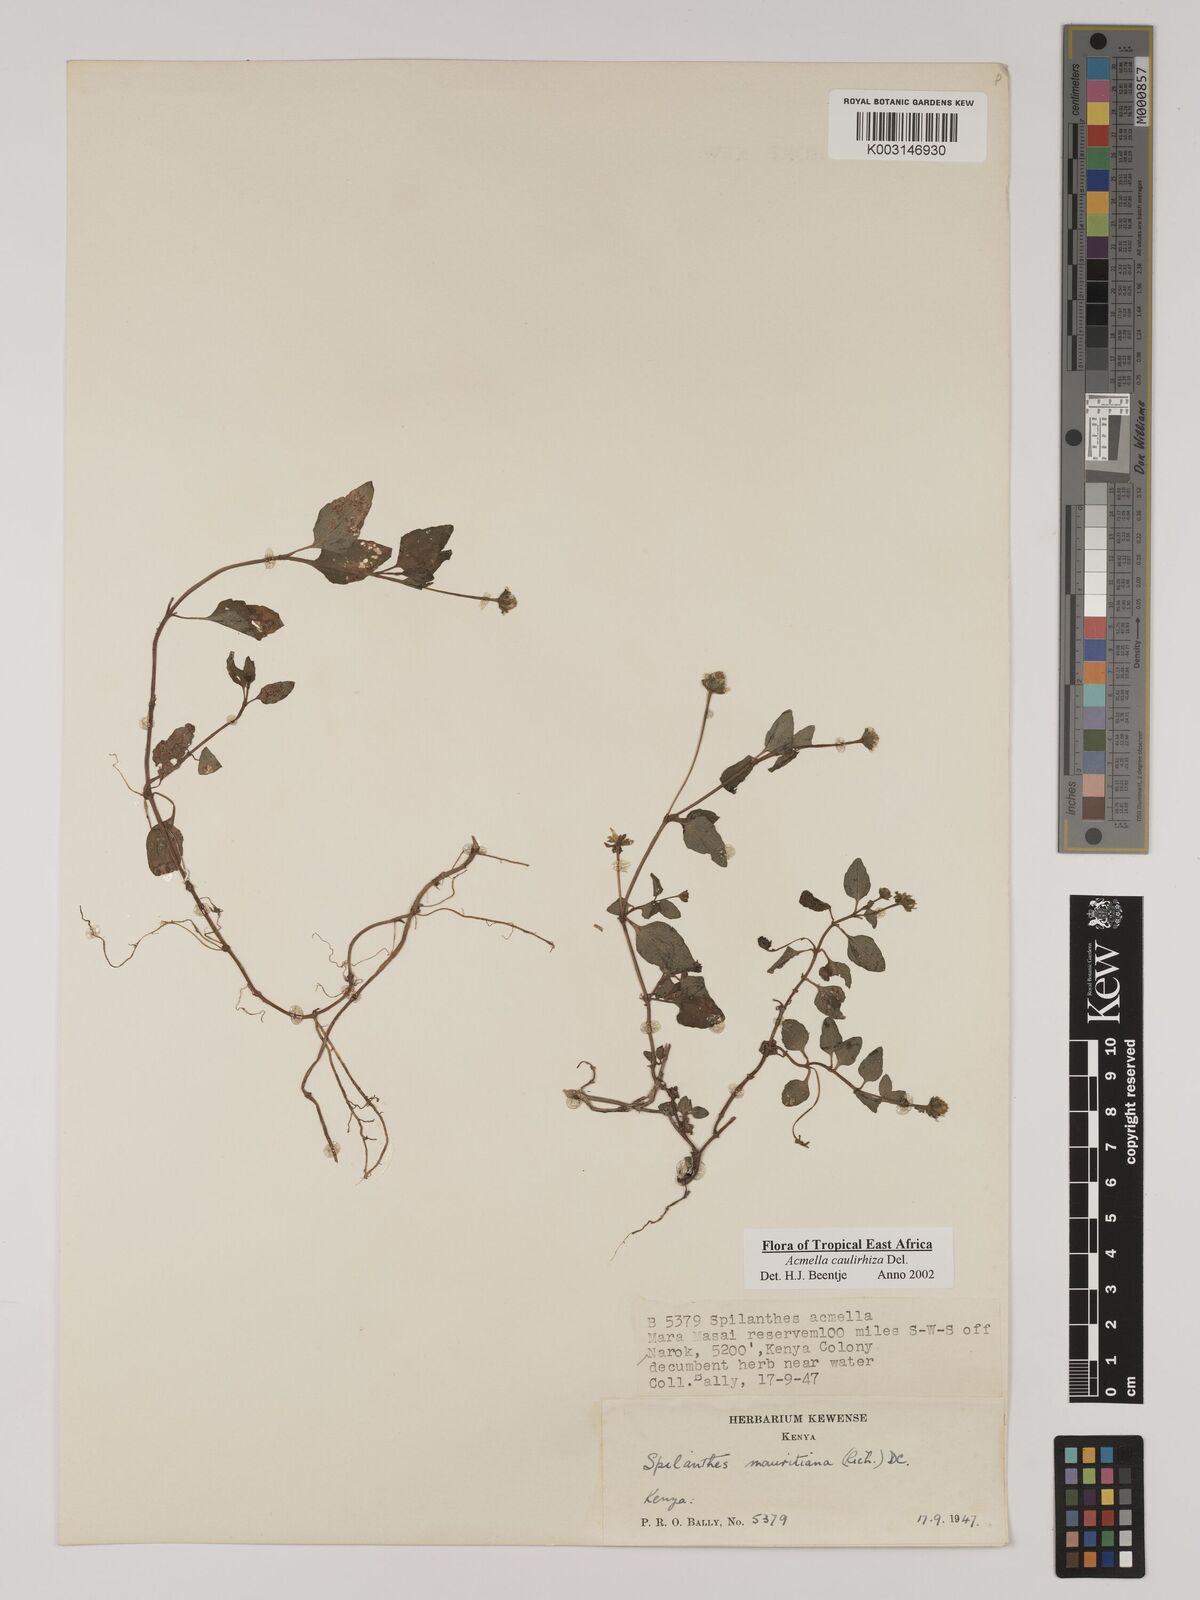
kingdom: Plantae
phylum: Tracheophyta
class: Magnoliopsida
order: Asterales
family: Asteraceae
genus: Acmella
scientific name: Acmella caulirhiza
